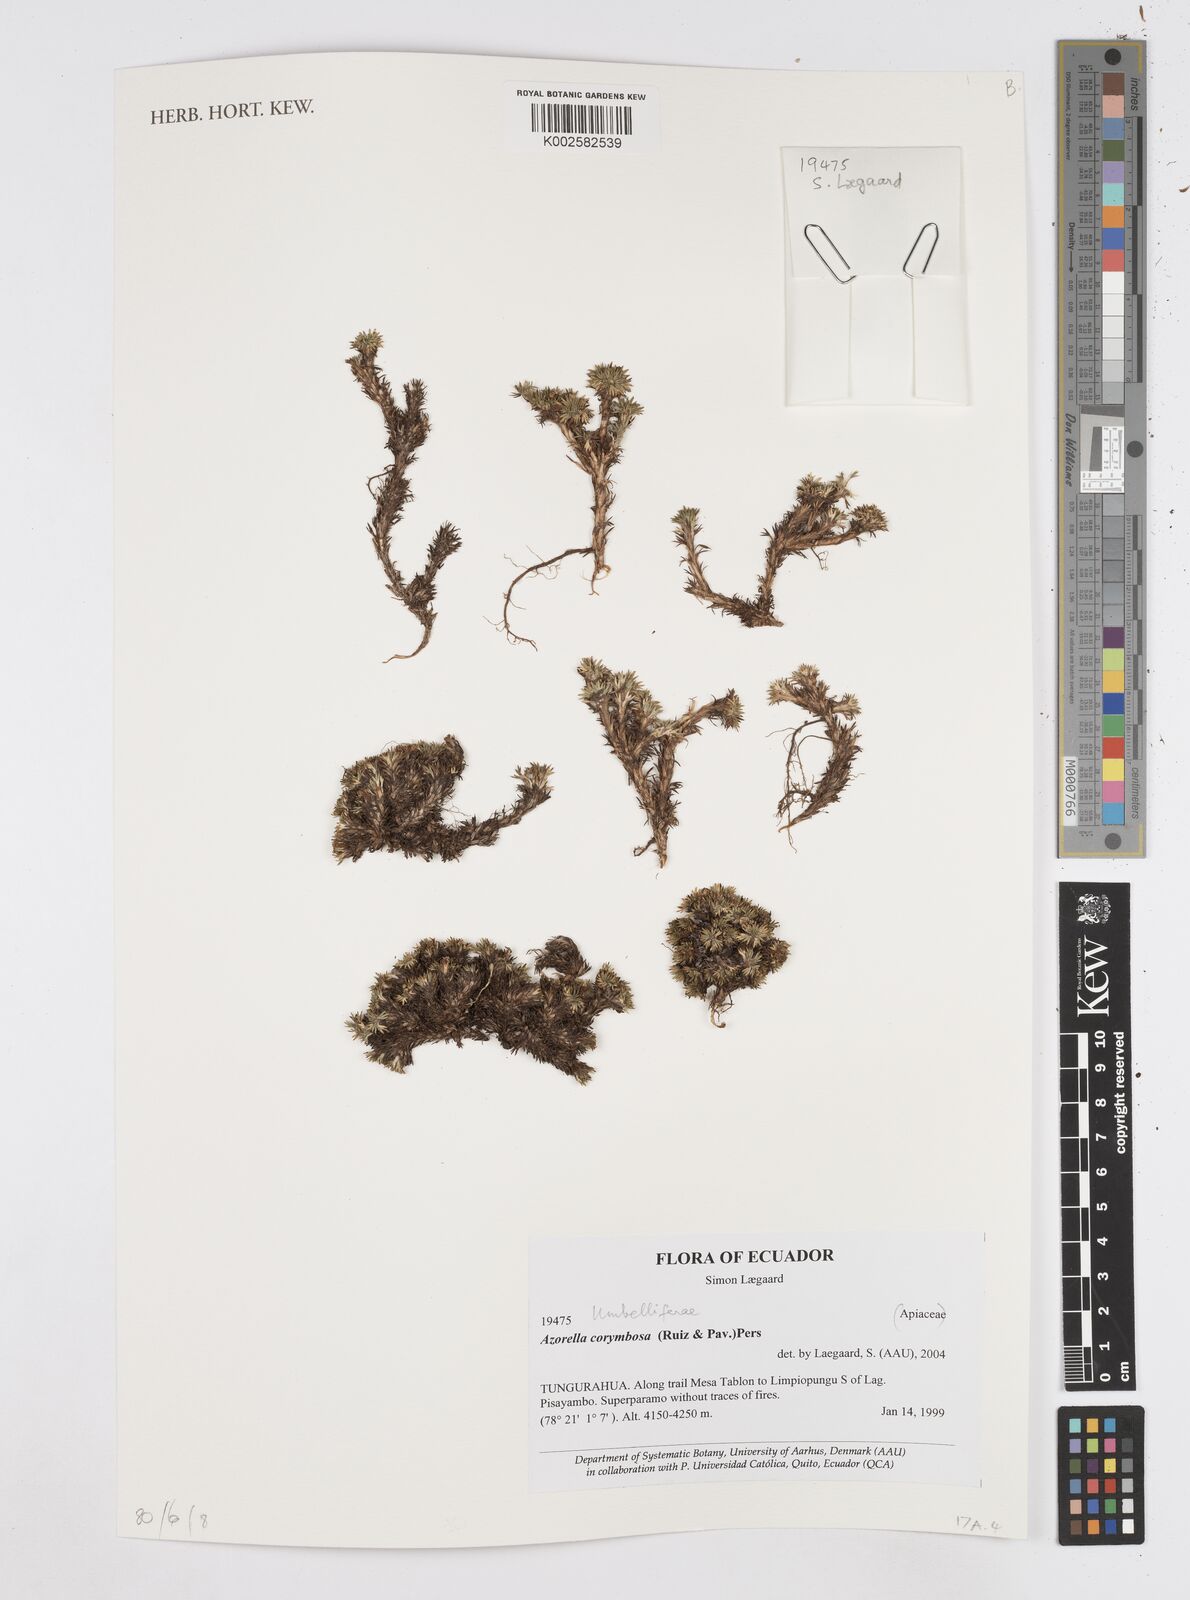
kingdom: Plantae
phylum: Tracheophyta
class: Magnoliopsida
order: Apiales
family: Apiaceae
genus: Azorella
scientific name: Azorella corymbosa
